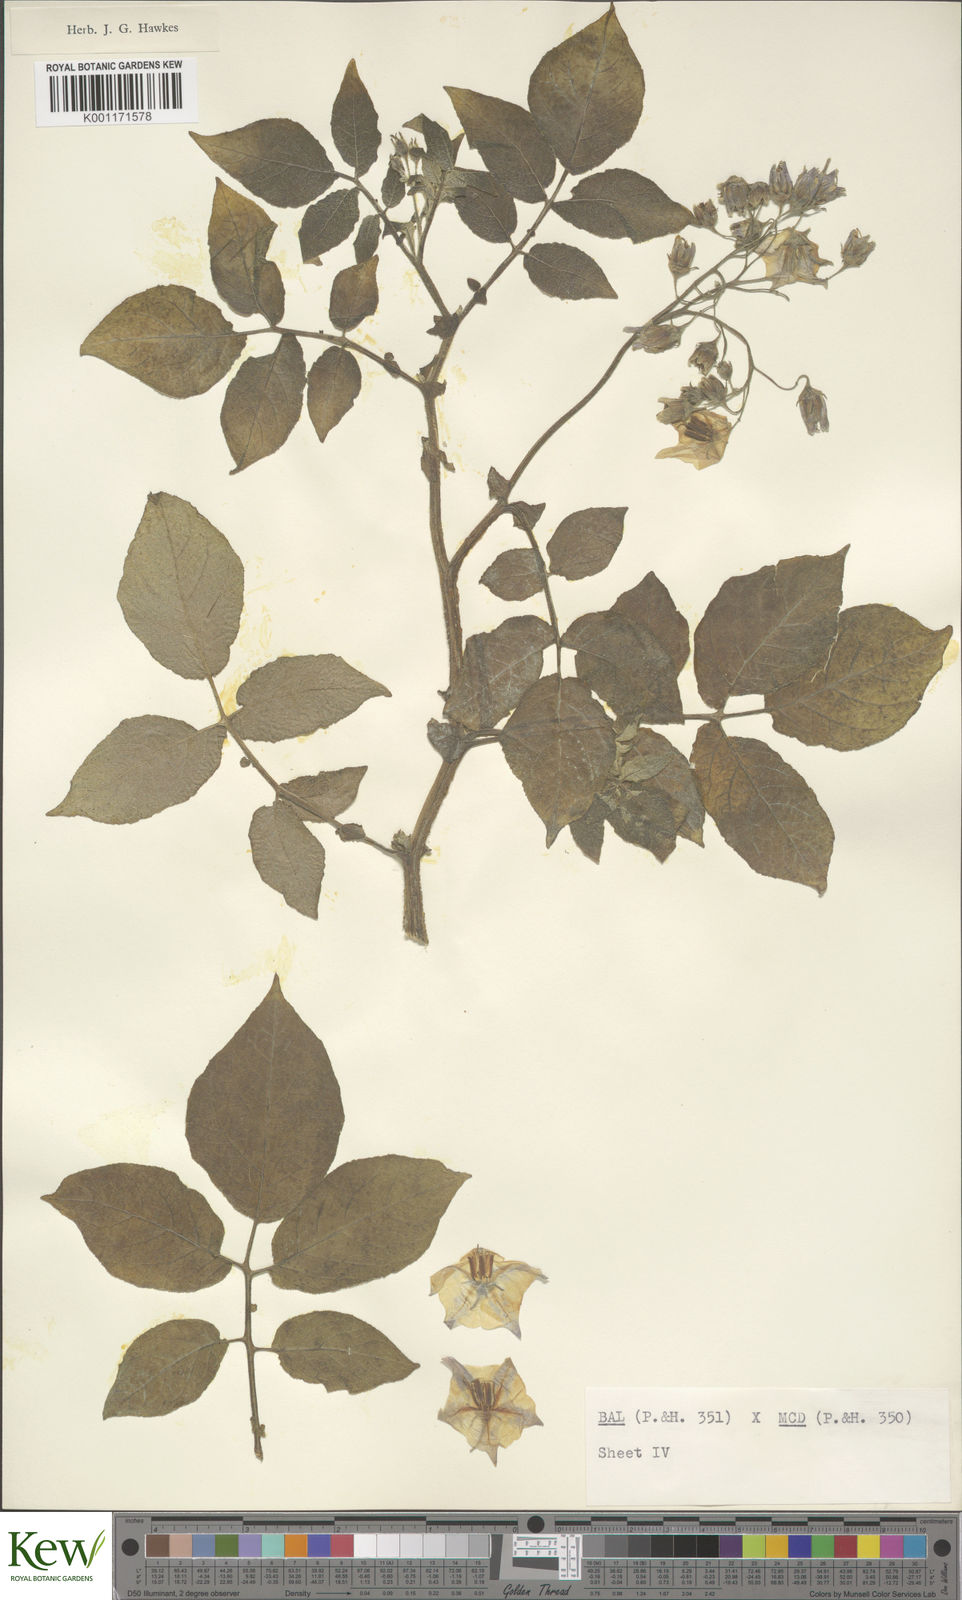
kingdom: Plantae
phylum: Tracheophyta
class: Magnoliopsida
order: Solanales
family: Solanaceae
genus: Solanum
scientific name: Solanum vernei
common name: Purple potato
